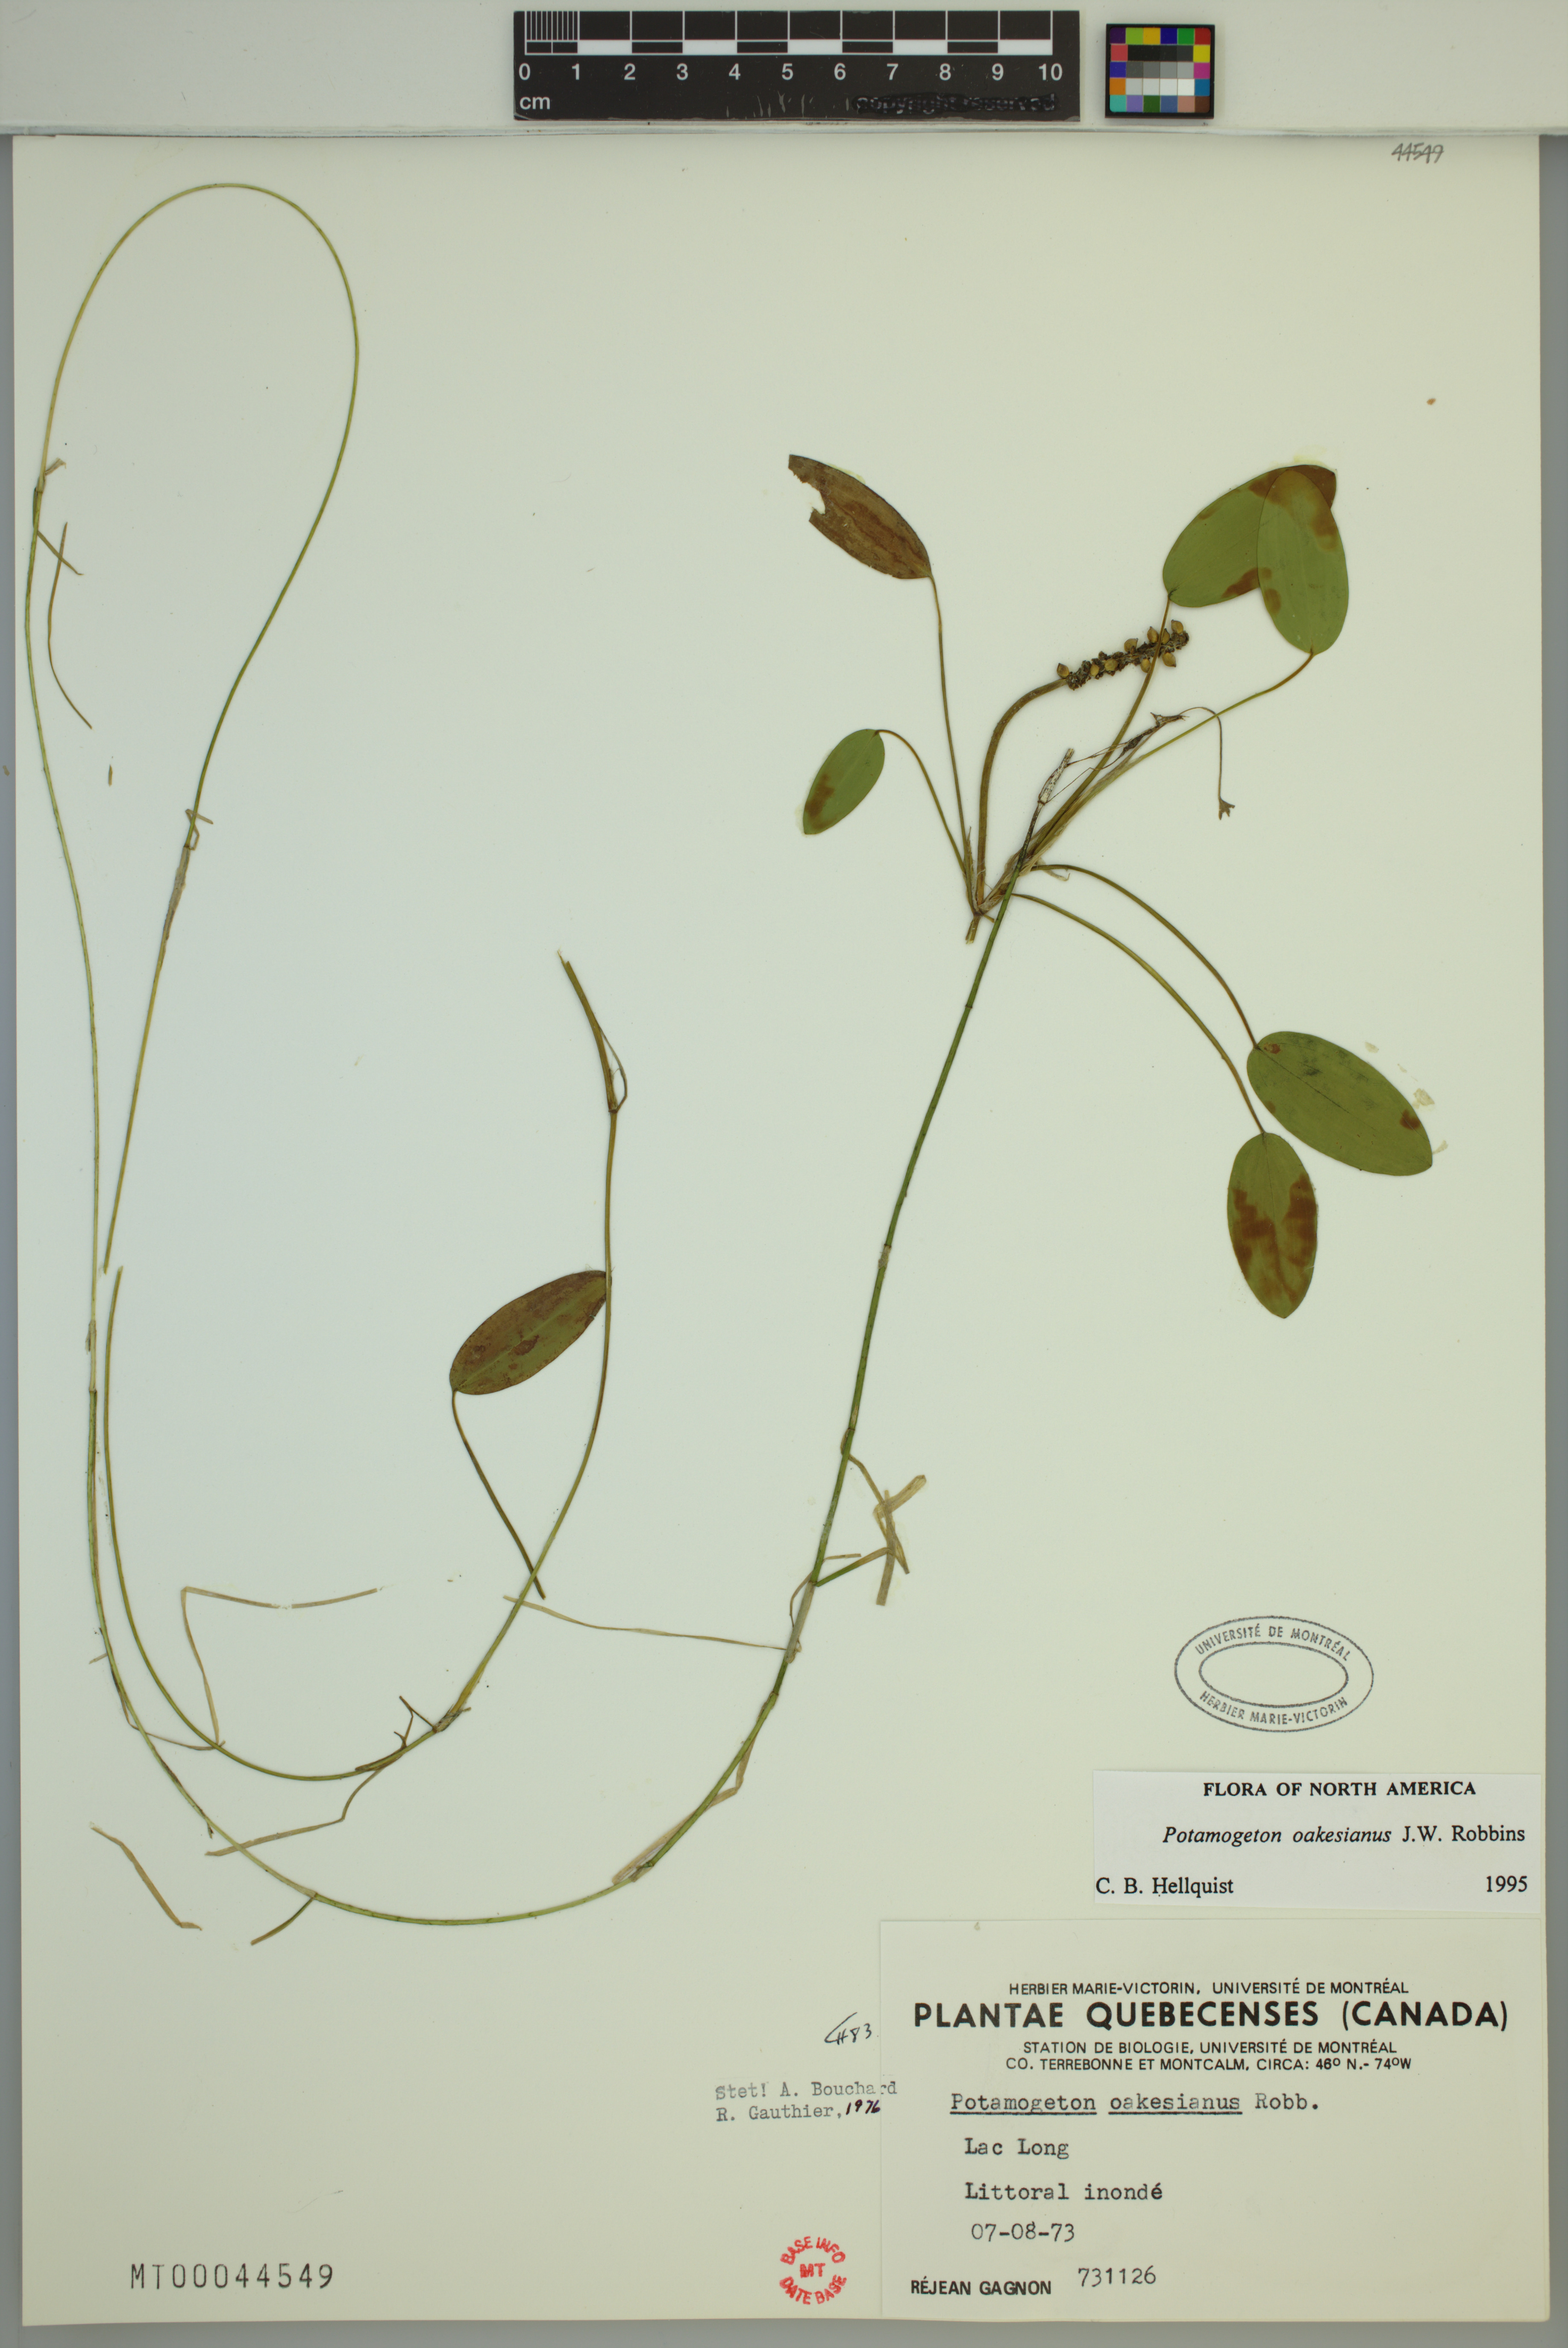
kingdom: Plantae
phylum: Tracheophyta
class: Liliopsida
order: Alismatales
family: Potamogetonaceae
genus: Potamogeton
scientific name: Potamogeton oakesianus
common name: Oakes' pondweed
